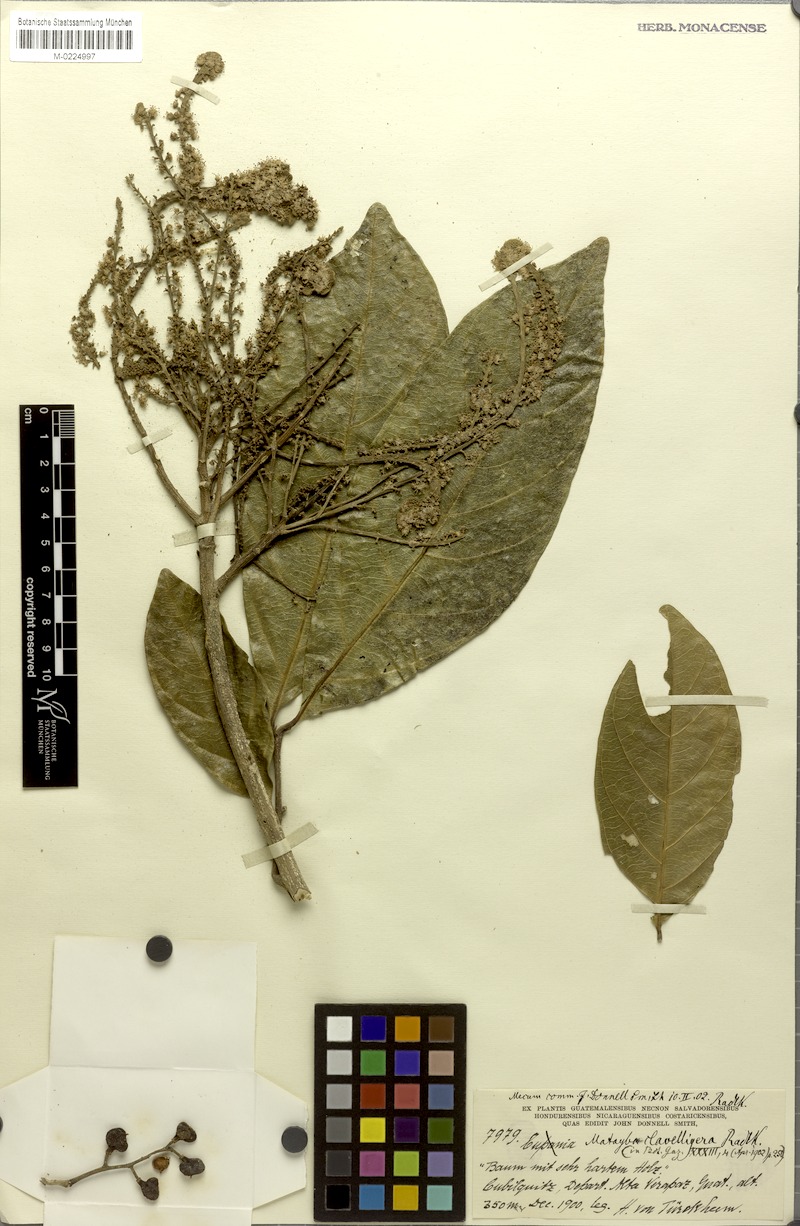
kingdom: Plantae
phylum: Tracheophyta
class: Magnoliopsida
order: Sapindales
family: Sapindaceae
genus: Matayba
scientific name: Matayba clavelligera
